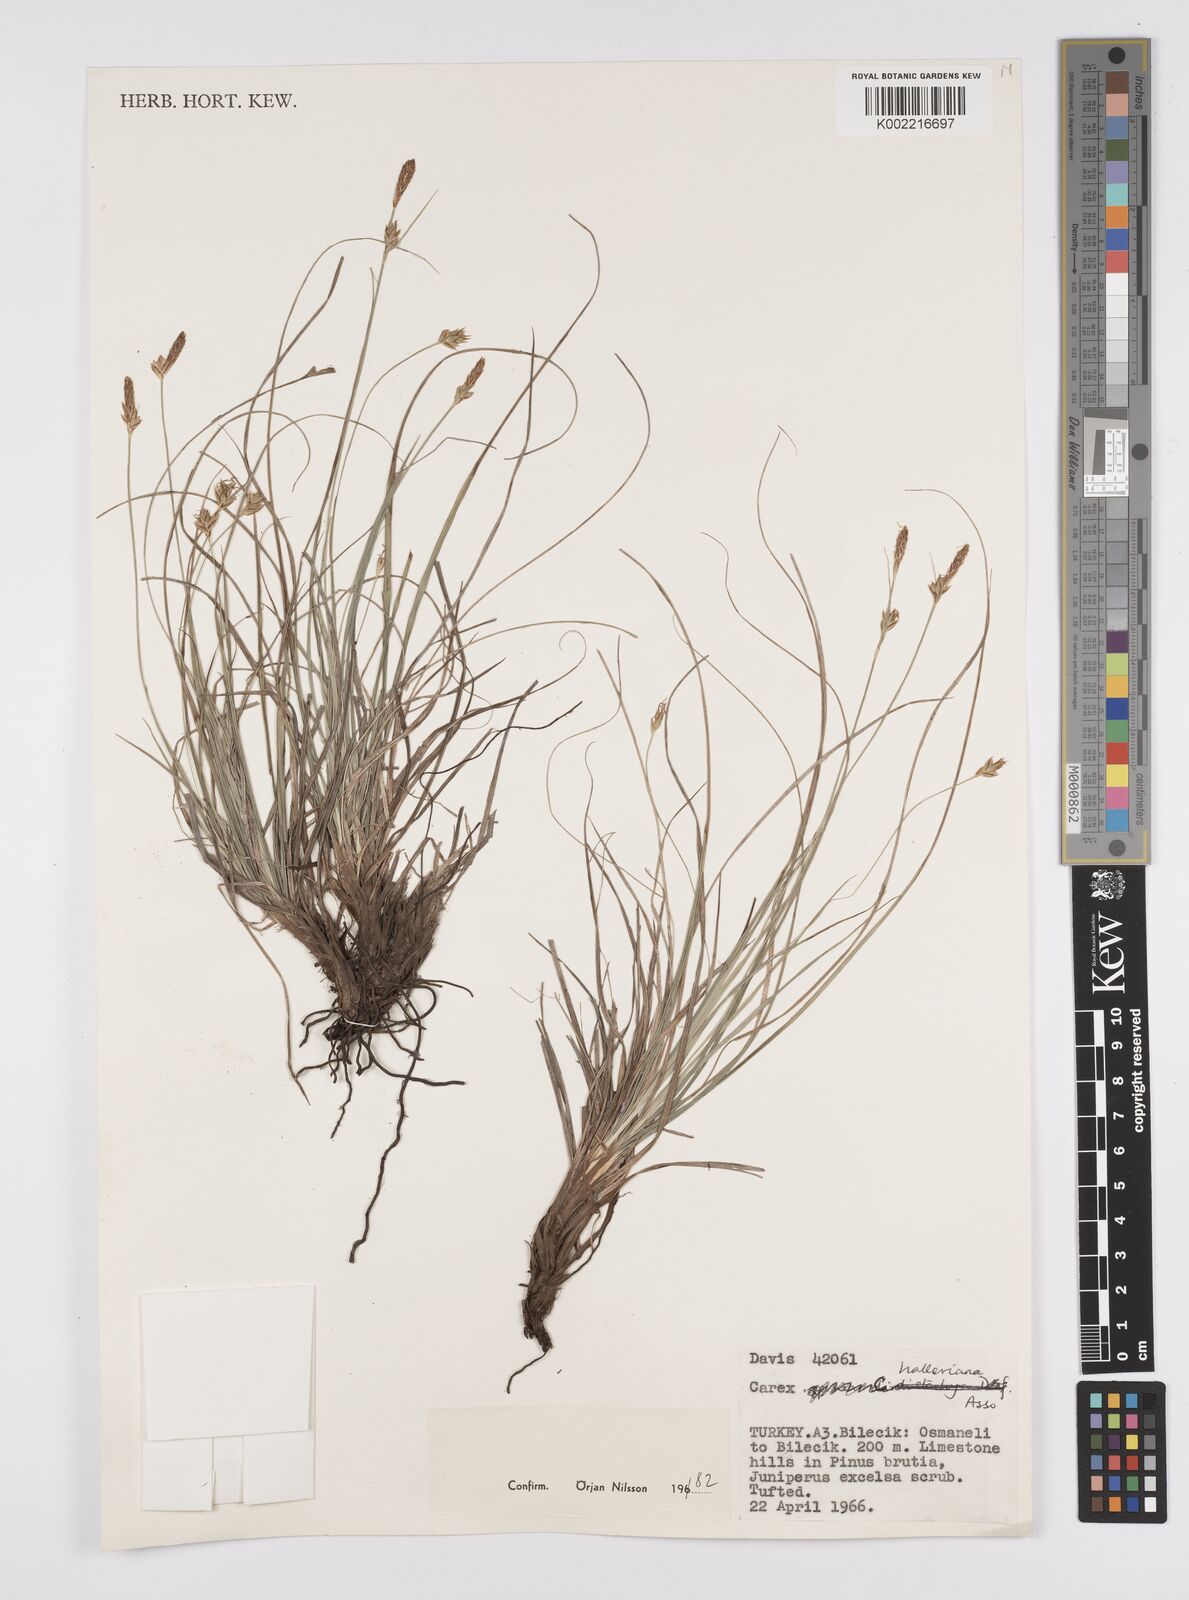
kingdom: Plantae
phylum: Tracheophyta
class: Liliopsida
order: Poales
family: Cyperaceae
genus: Carex
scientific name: Carex halleriana
